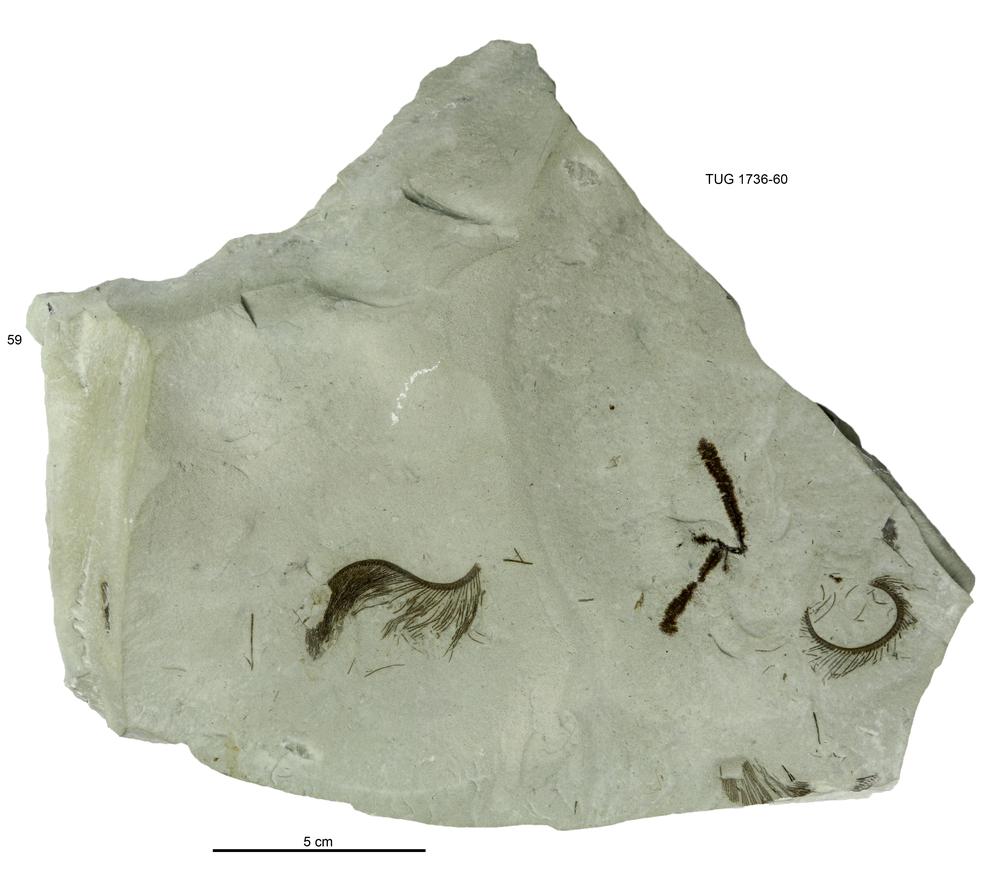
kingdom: Animalia
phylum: Echinodermata
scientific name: Echinodermata
